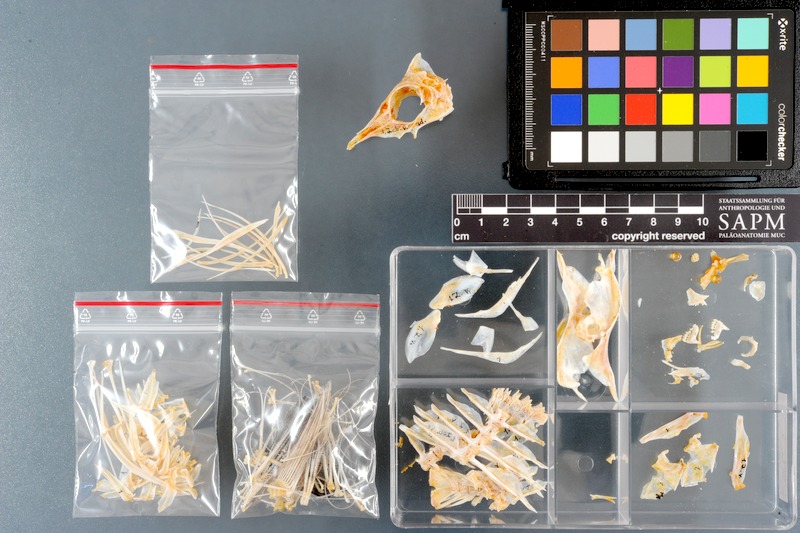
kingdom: Animalia
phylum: Chordata
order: Perciformes
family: Acanthuridae
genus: Zebrasoma
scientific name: Zebrasoma veliferum
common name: Sailfin surgeonfish
